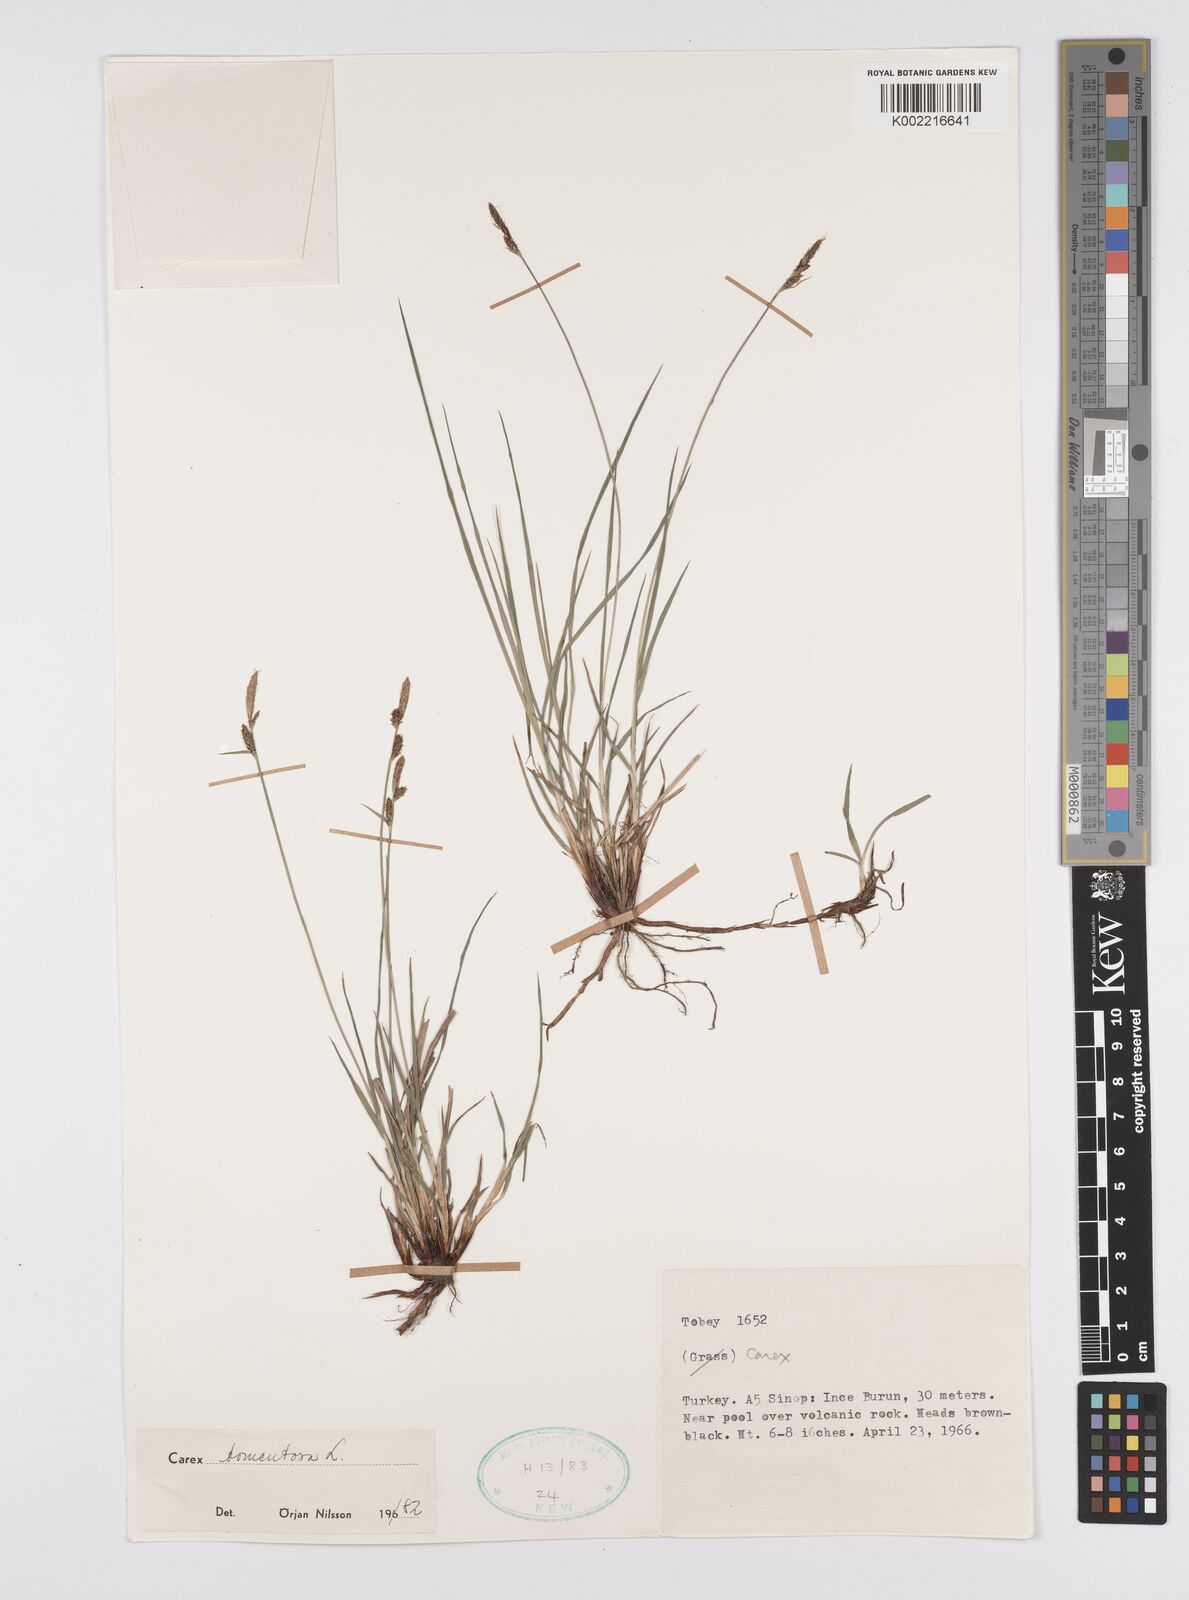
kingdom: Plantae
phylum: Tracheophyta
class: Liliopsida
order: Poales
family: Cyperaceae
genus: Carex
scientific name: Carex montana
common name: Soft-leaved sedge
